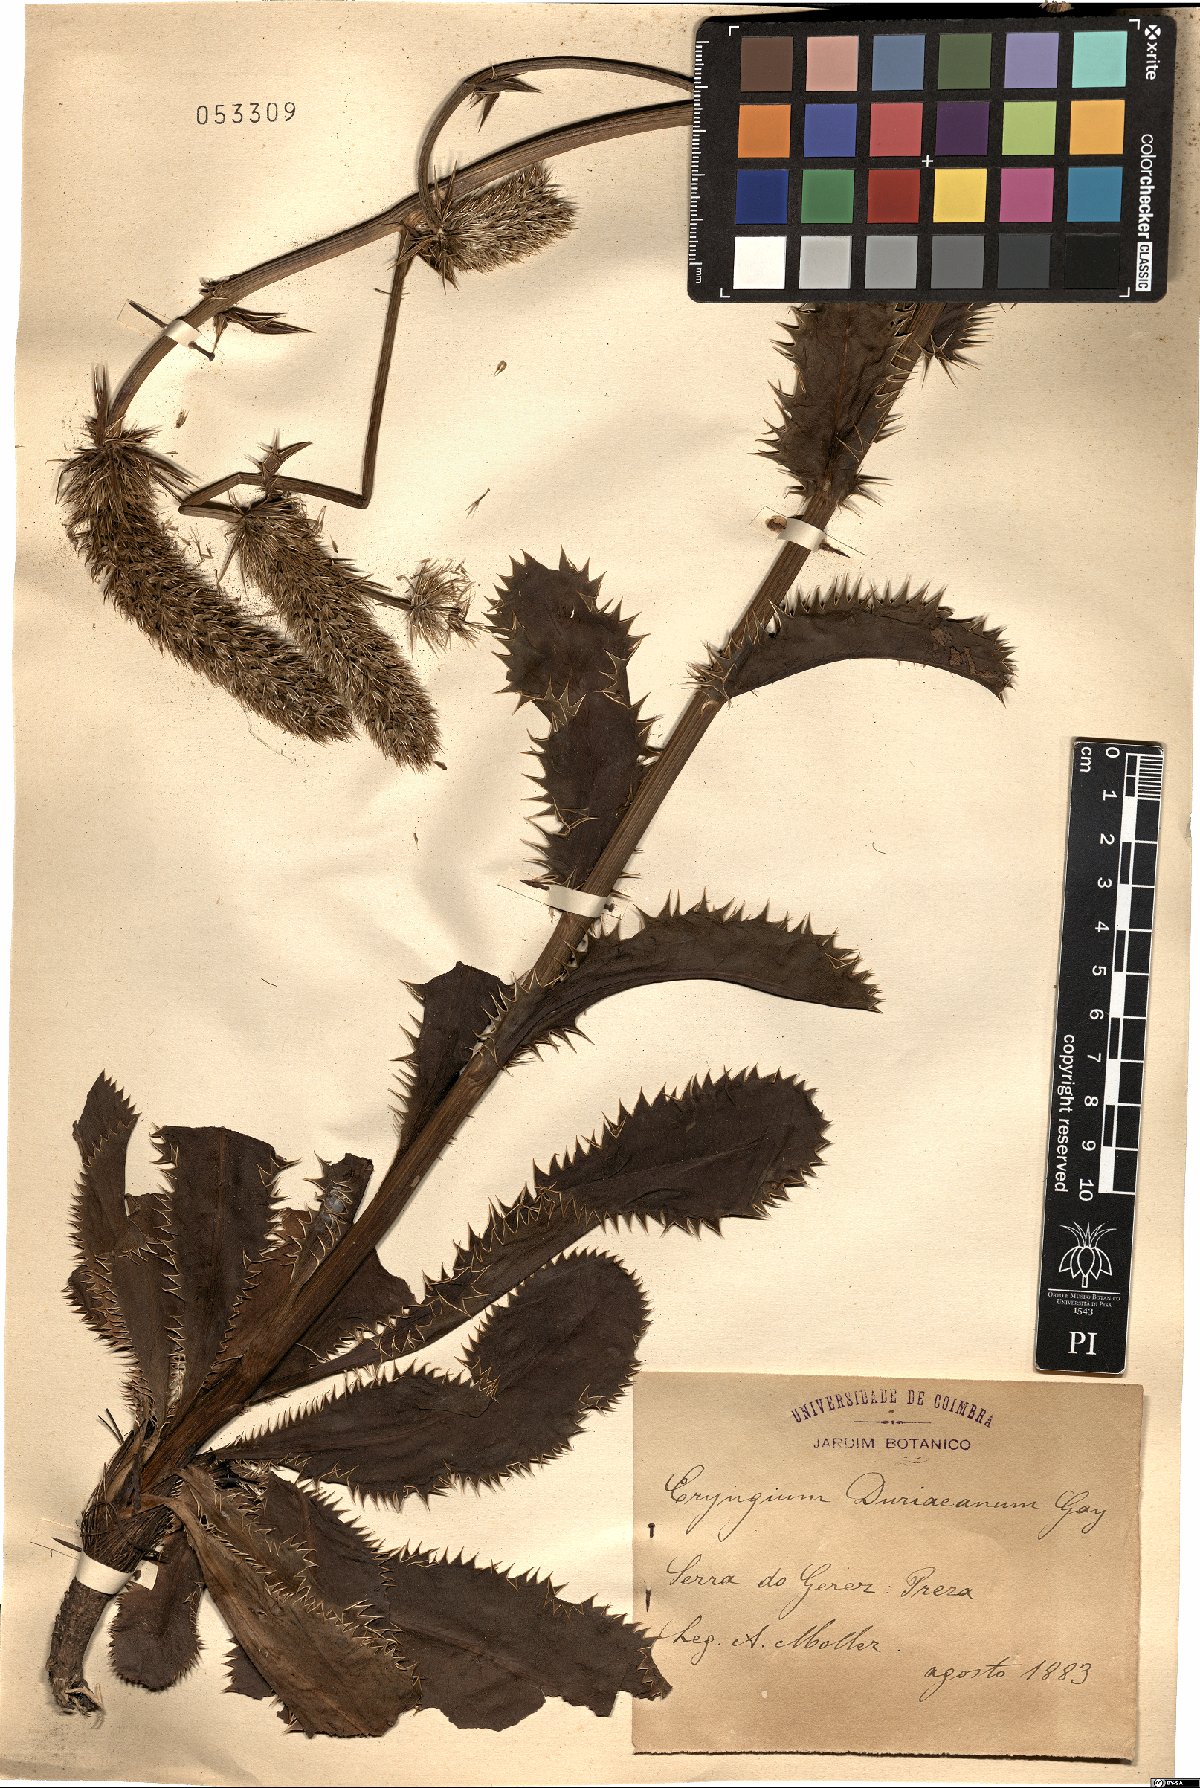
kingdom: Plantae
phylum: Tracheophyta
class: Magnoliopsida
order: Apiales
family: Apiaceae
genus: Eryngium
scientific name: Eryngium duriaei
